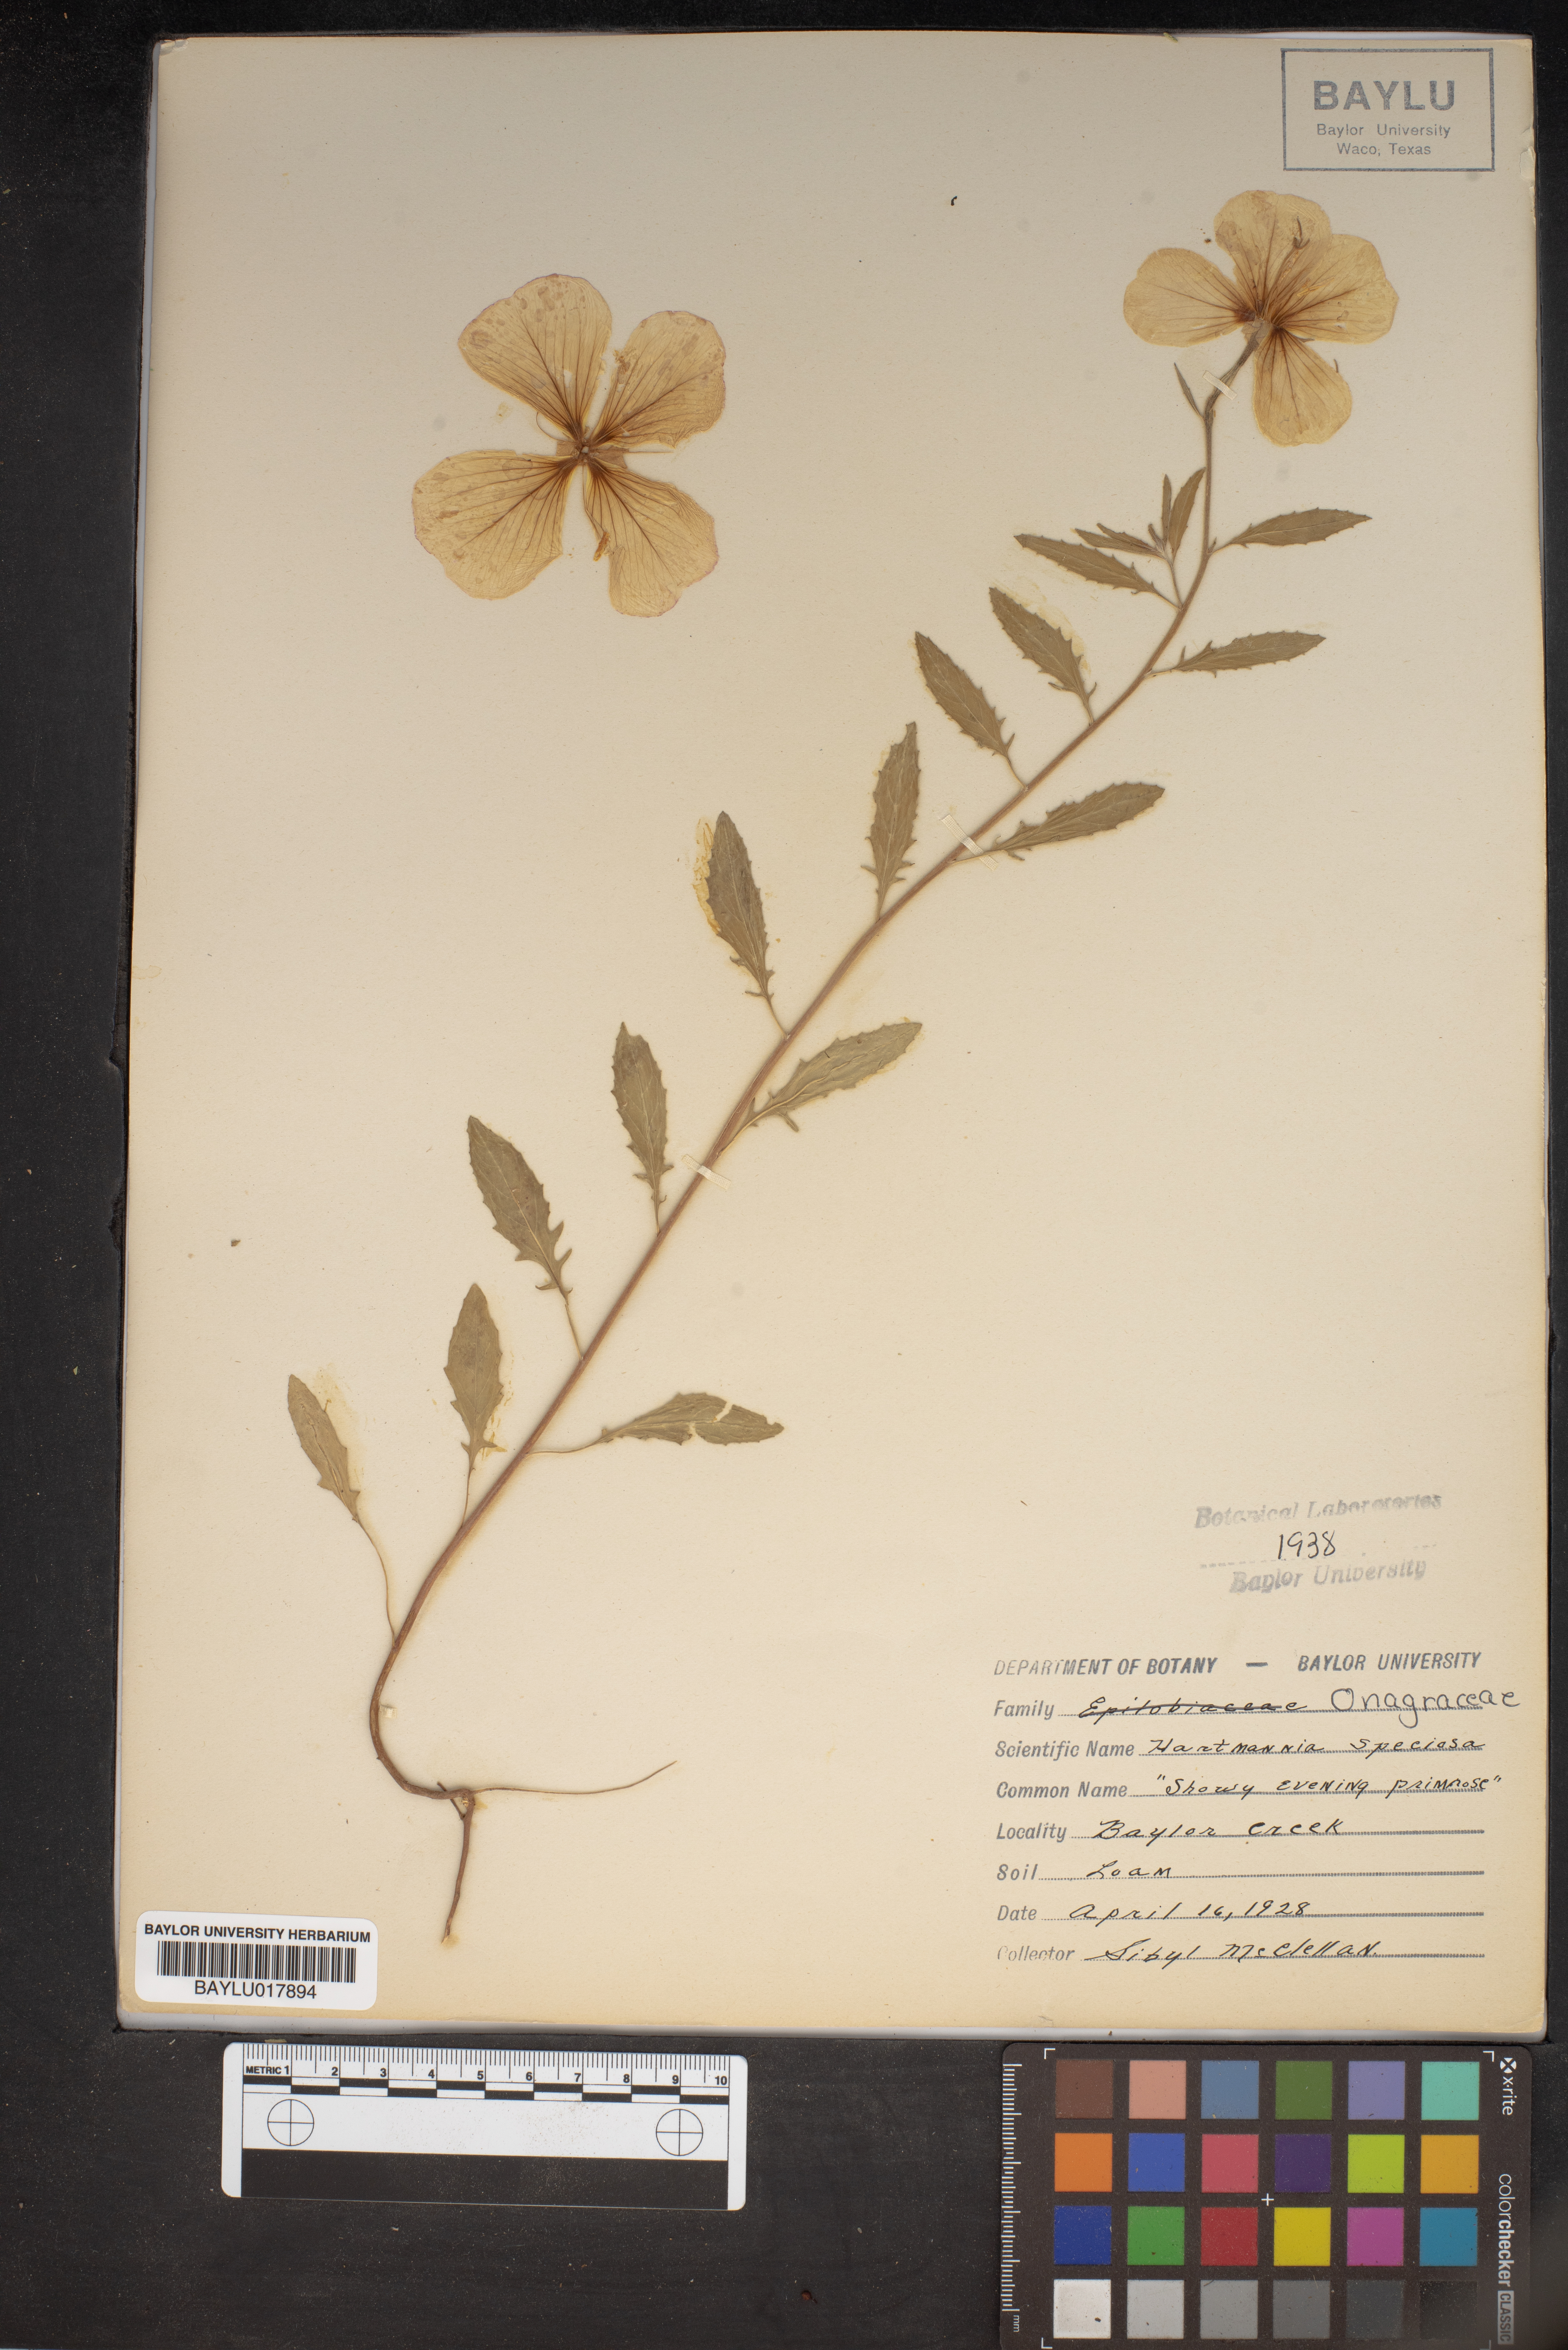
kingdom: Plantae
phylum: Tracheophyta
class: Magnoliopsida
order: Myrtales
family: Onagraceae
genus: Oenothera
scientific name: Oenothera speciosa
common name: White evening-primrose
